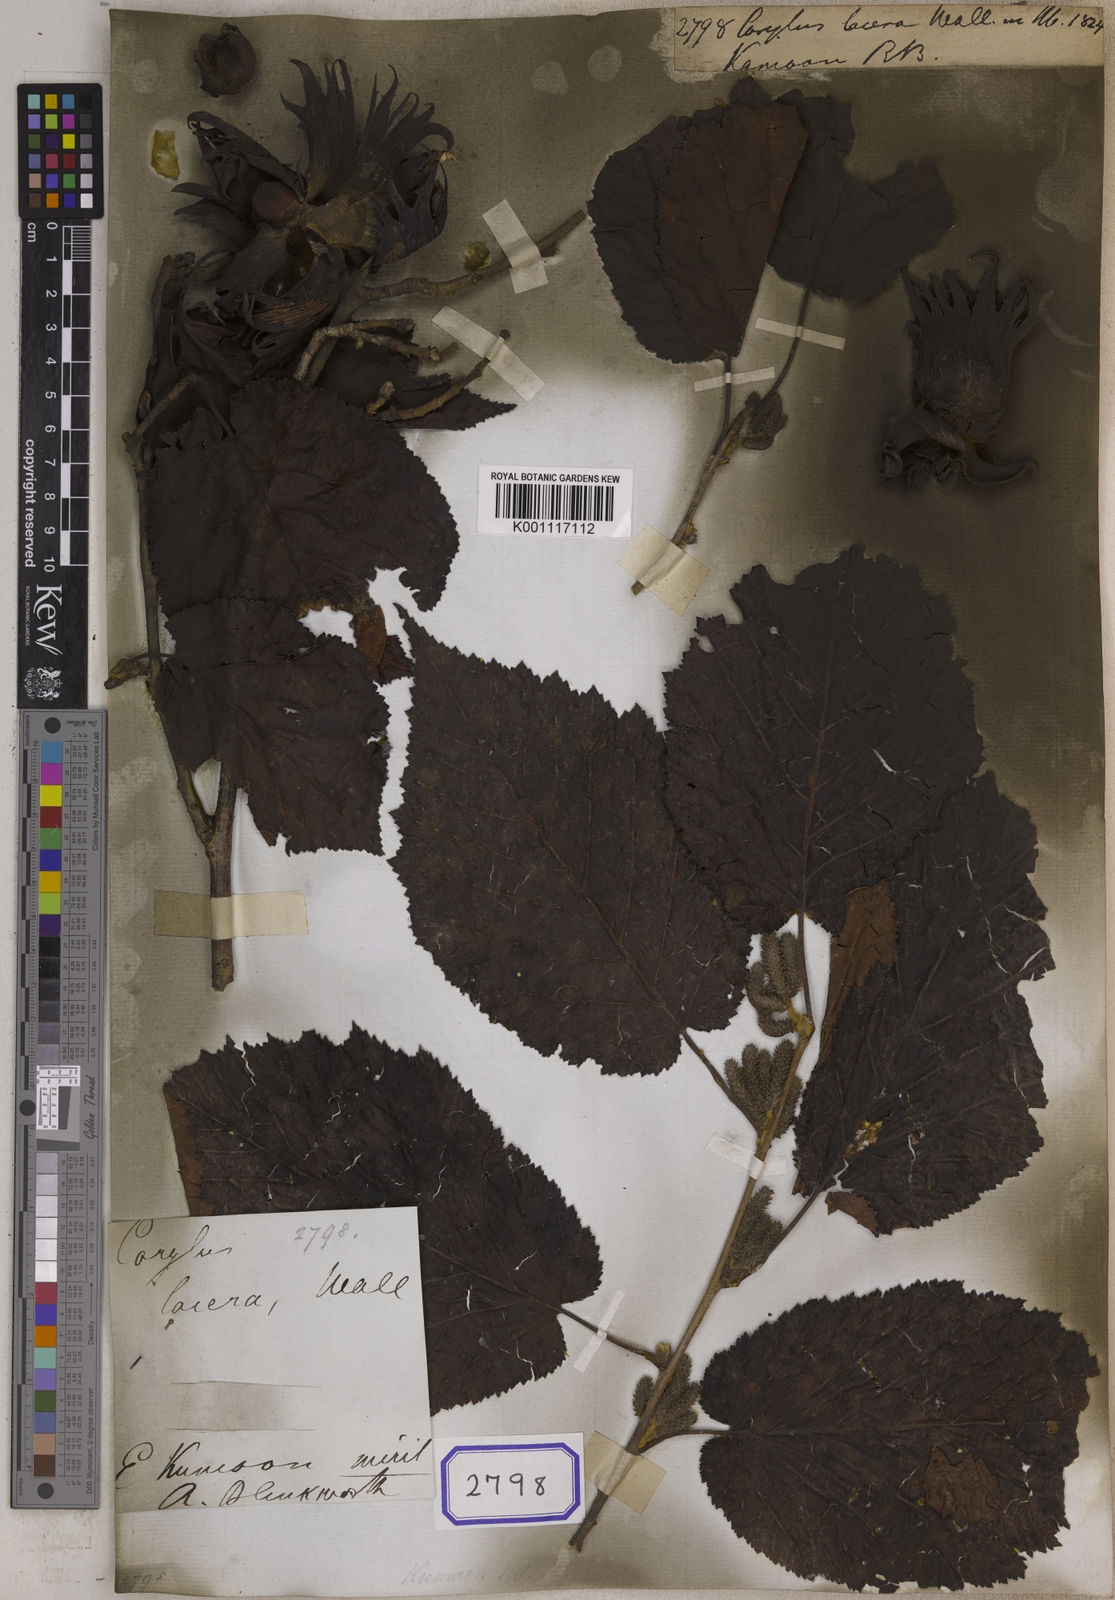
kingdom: Plantae
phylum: Tracheophyta
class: Magnoliopsida
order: Fagales
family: Betulaceae
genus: Corylus
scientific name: Corylus jacquemontii
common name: Indian tree hazel
